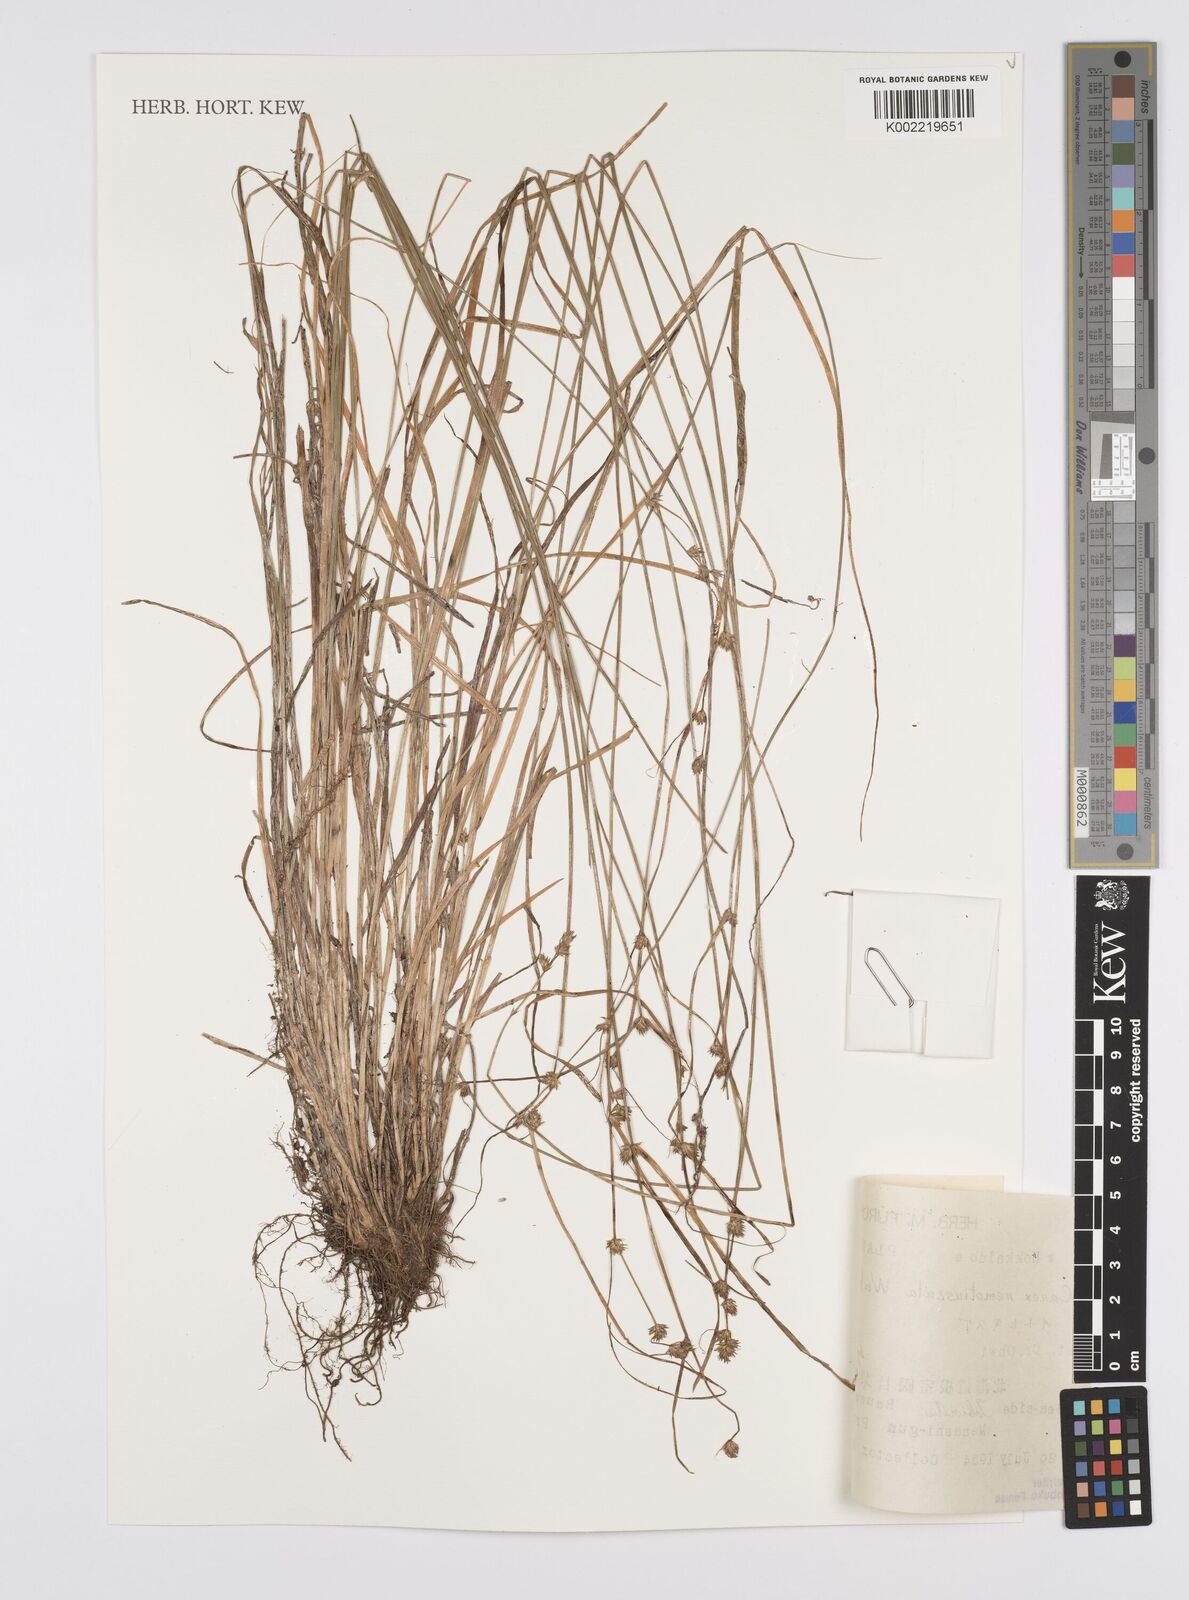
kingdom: Plantae
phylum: Tracheophyta
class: Liliopsida
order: Poales
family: Cyperaceae
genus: Carex
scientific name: Carex traiziscana
